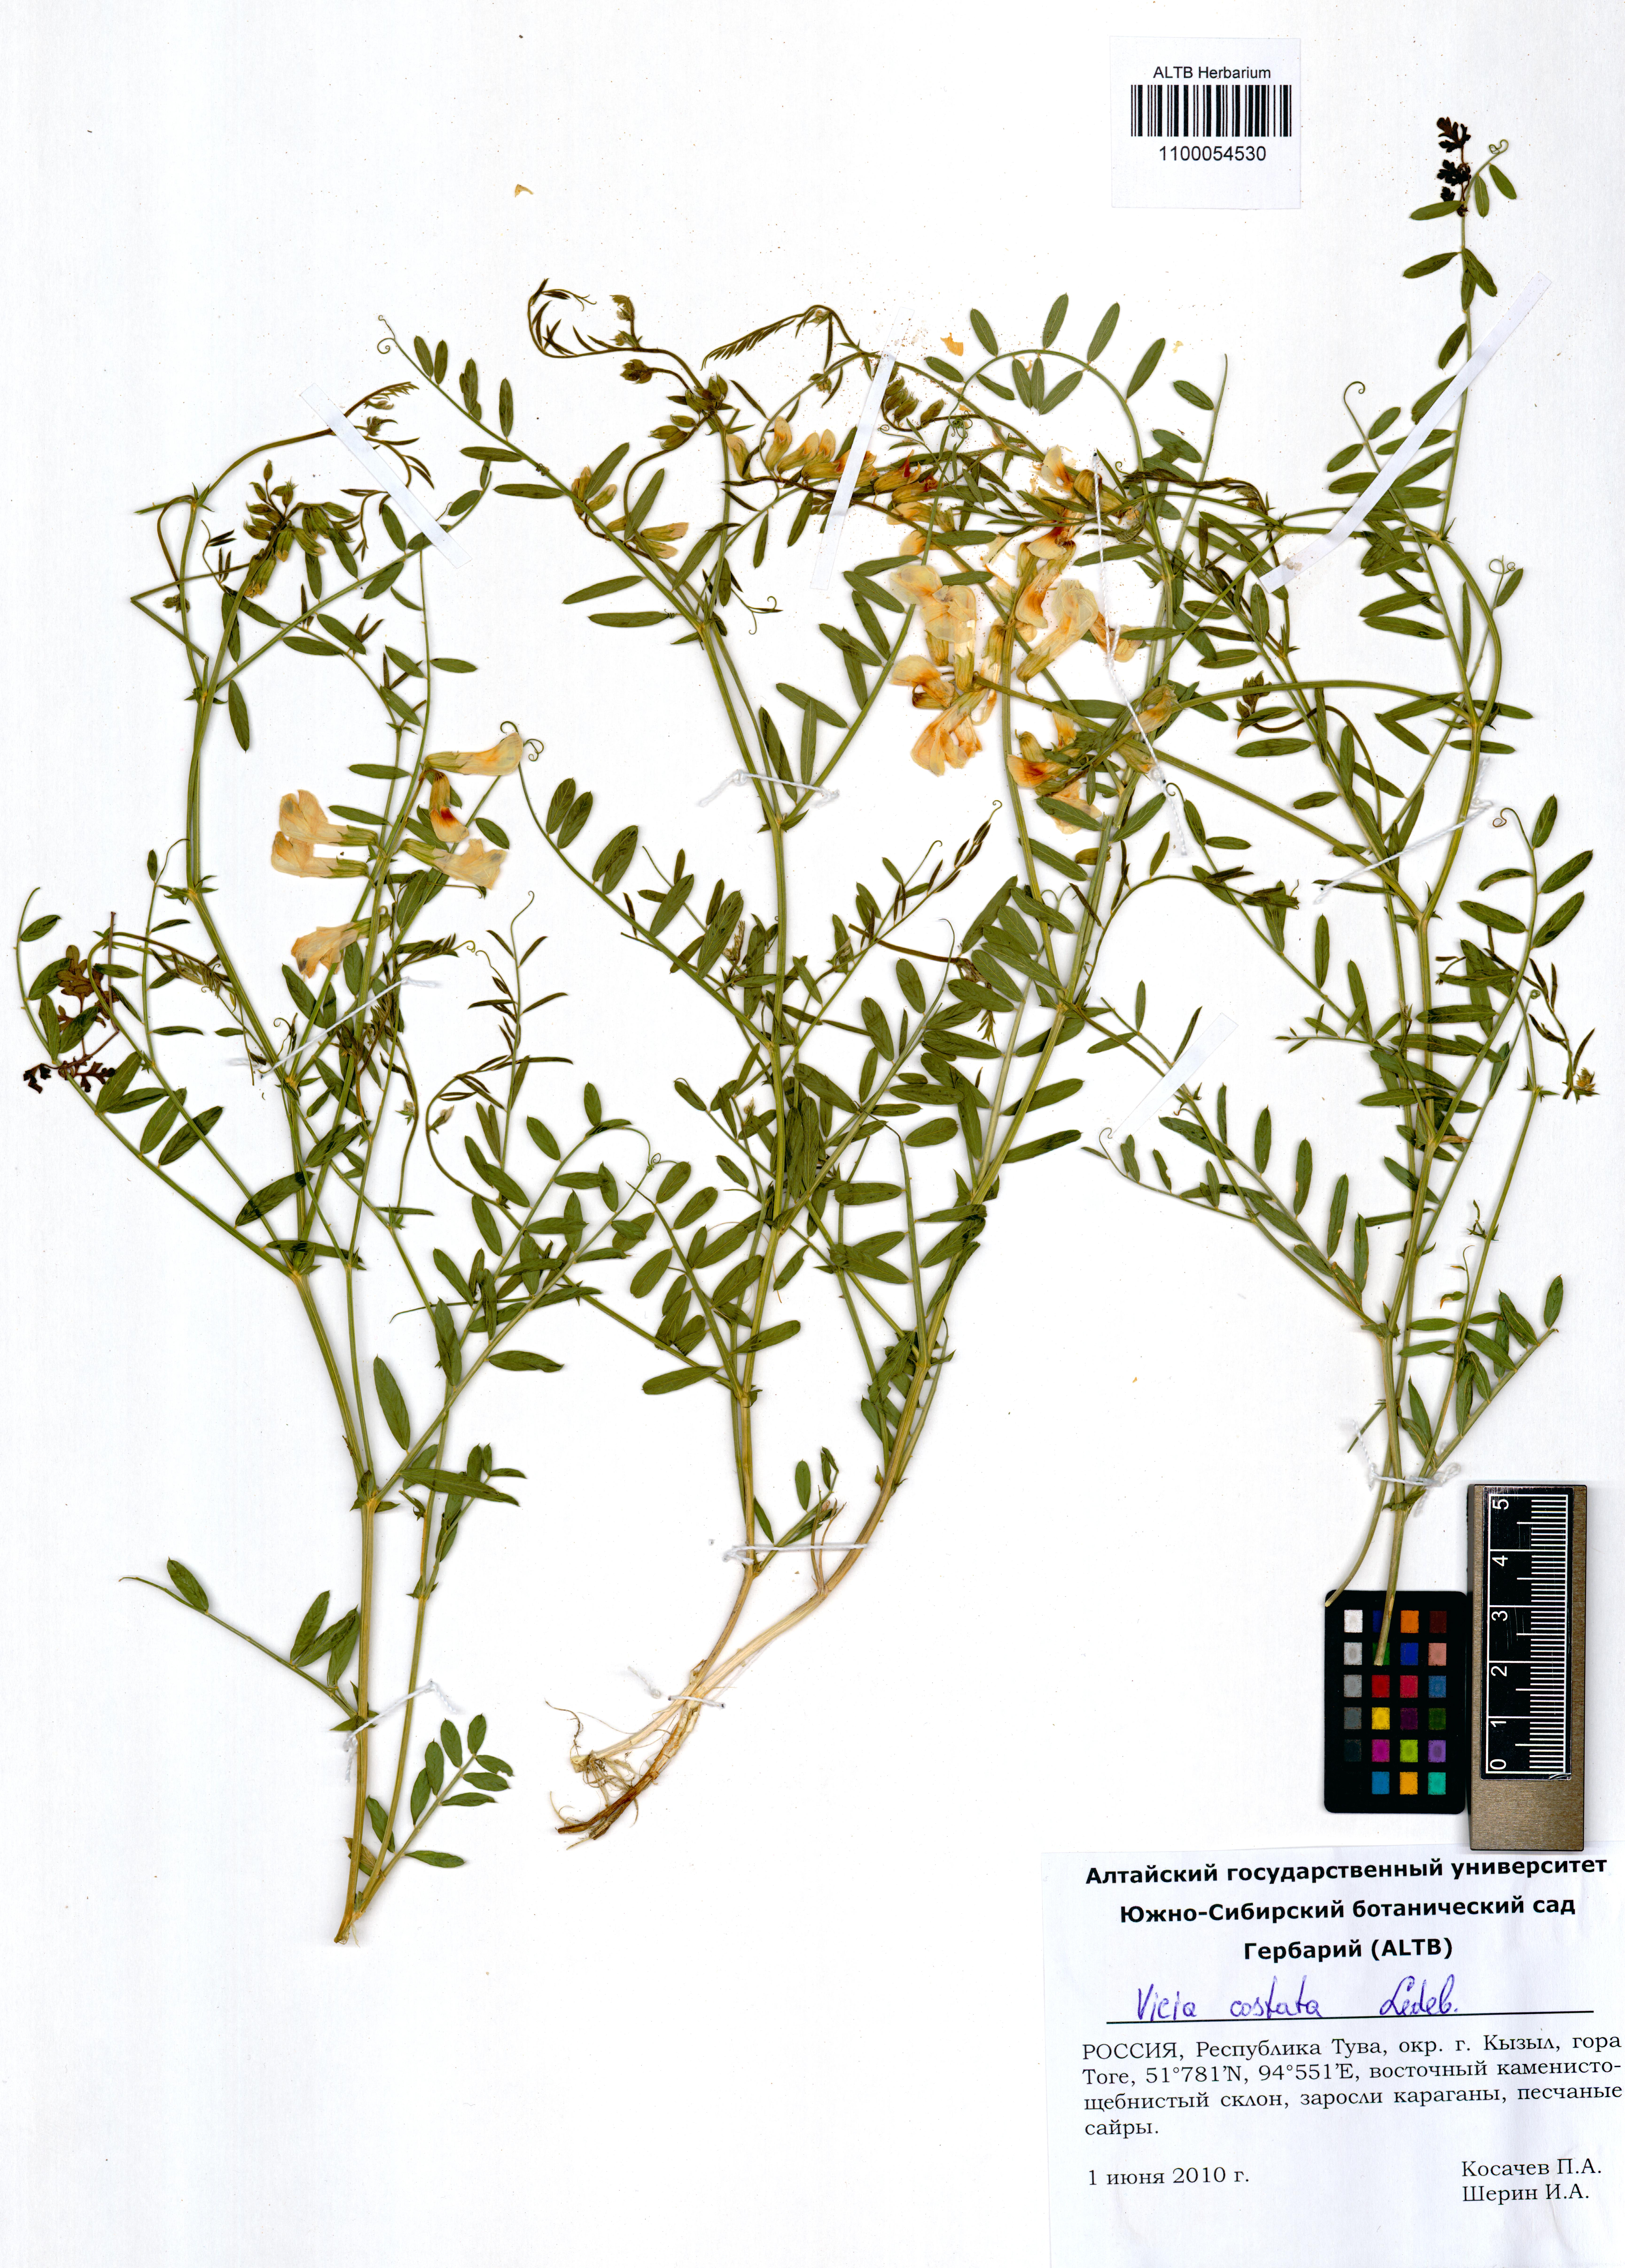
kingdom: Plantae
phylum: Tracheophyta
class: Magnoliopsida
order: Fabales
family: Fabaceae
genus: Vicia
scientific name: Vicia costata
